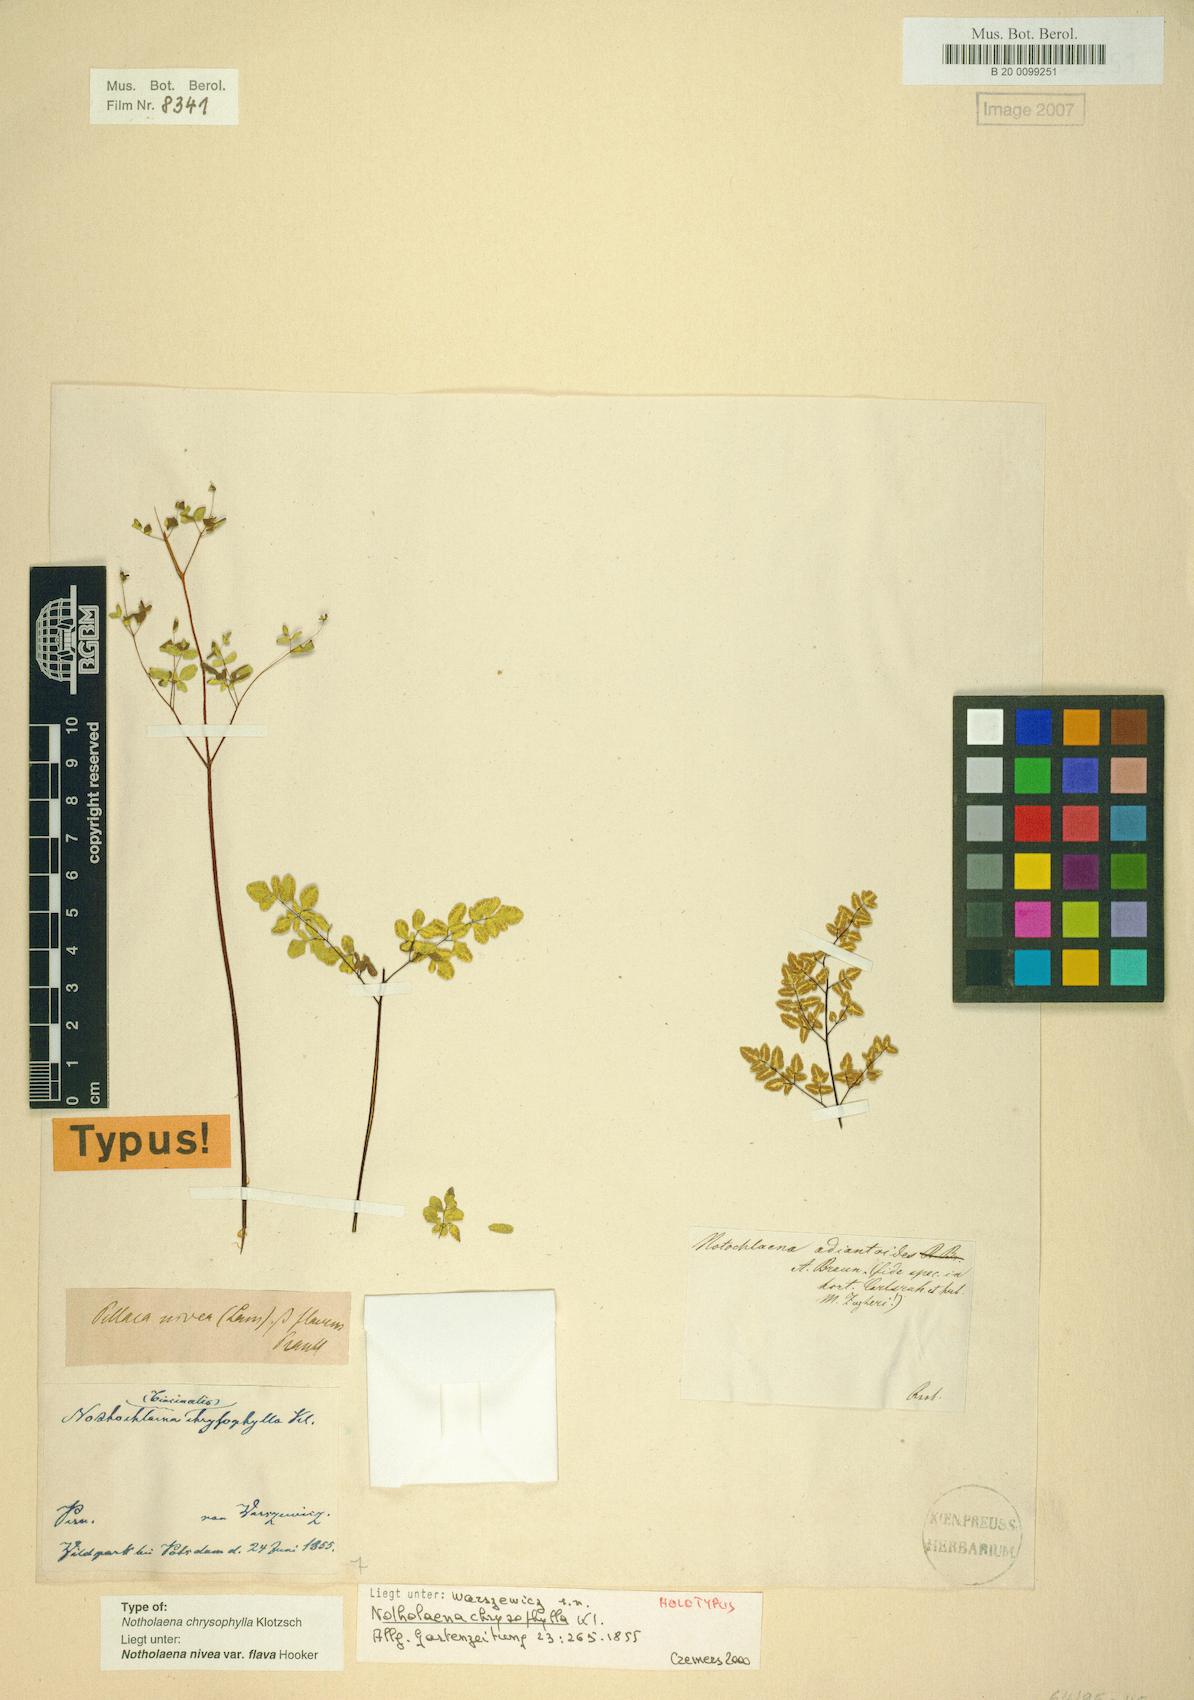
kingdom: Plantae
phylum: Tracheophyta
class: Polypodiopsida
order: Polypodiales
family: Pteridaceae
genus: Argyrochosma
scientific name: Argyrochosma flava
